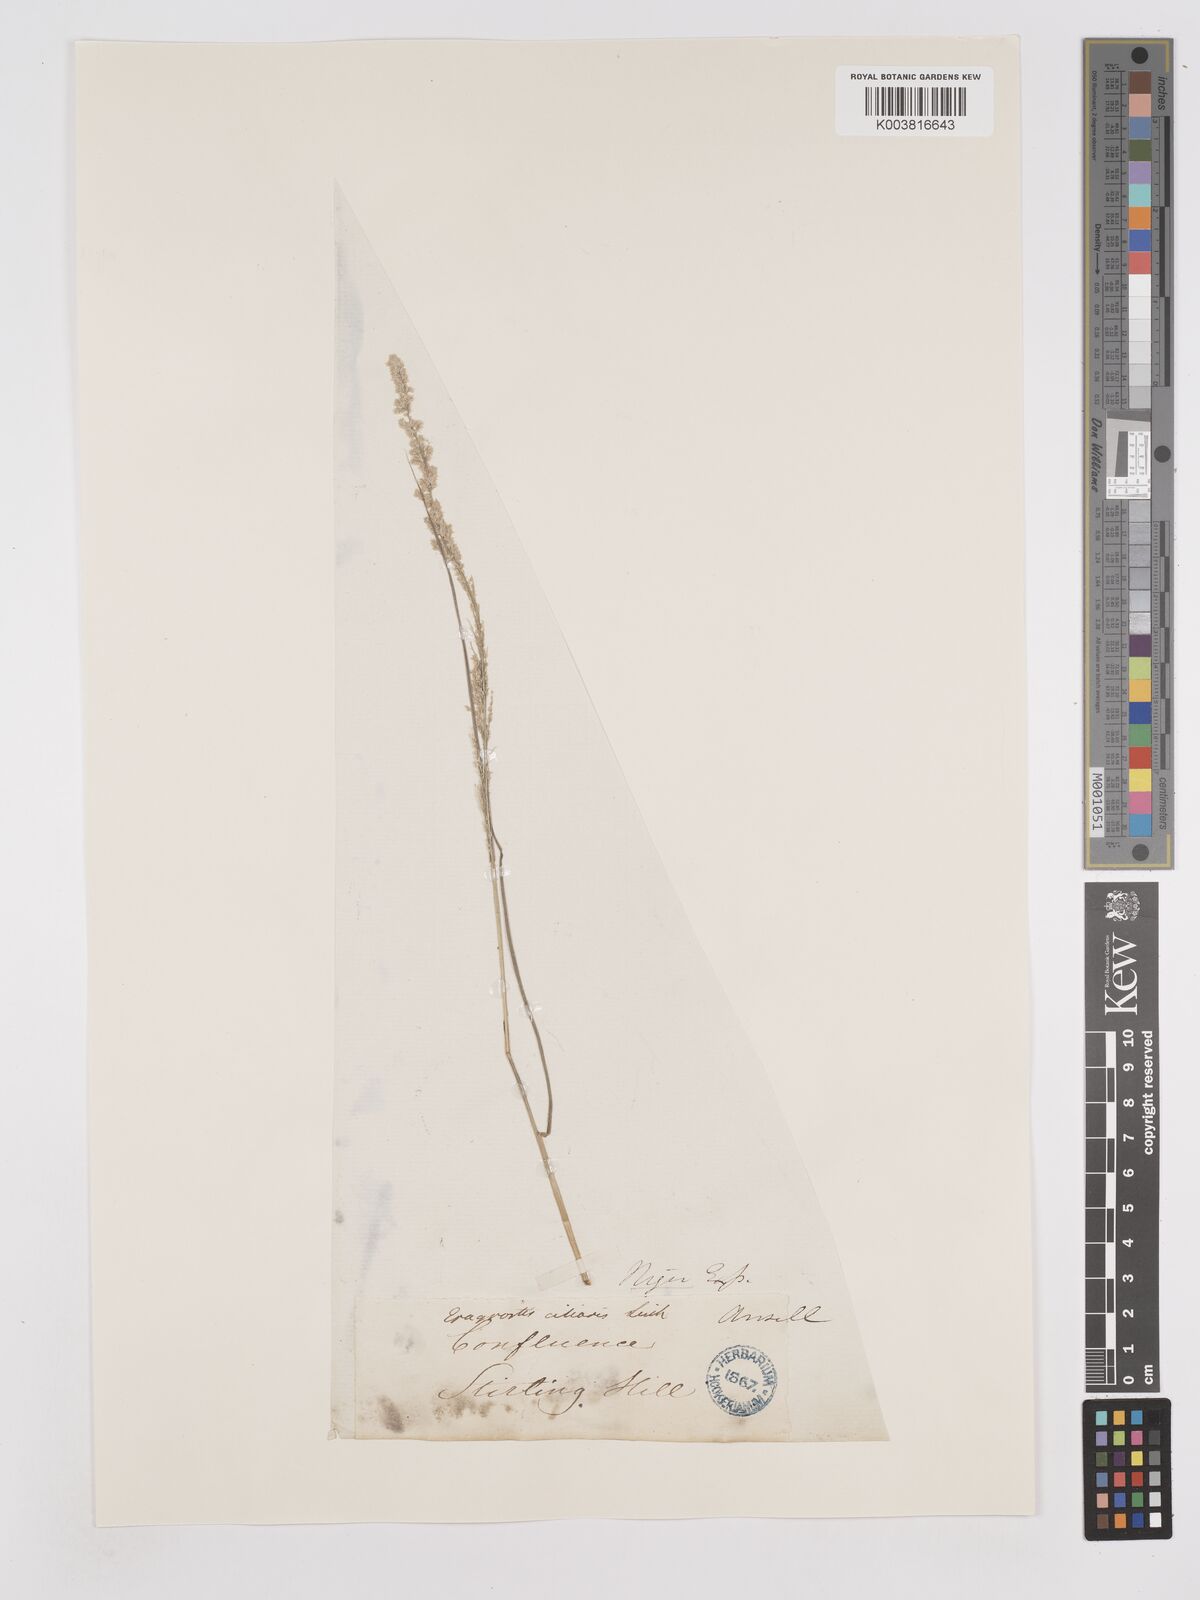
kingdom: Plantae
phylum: Tracheophyta
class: Liliopsida
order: Poales
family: Poaceae
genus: Eragrostis
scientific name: Eragrostis ciliaris
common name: Gophertail lovegrass
